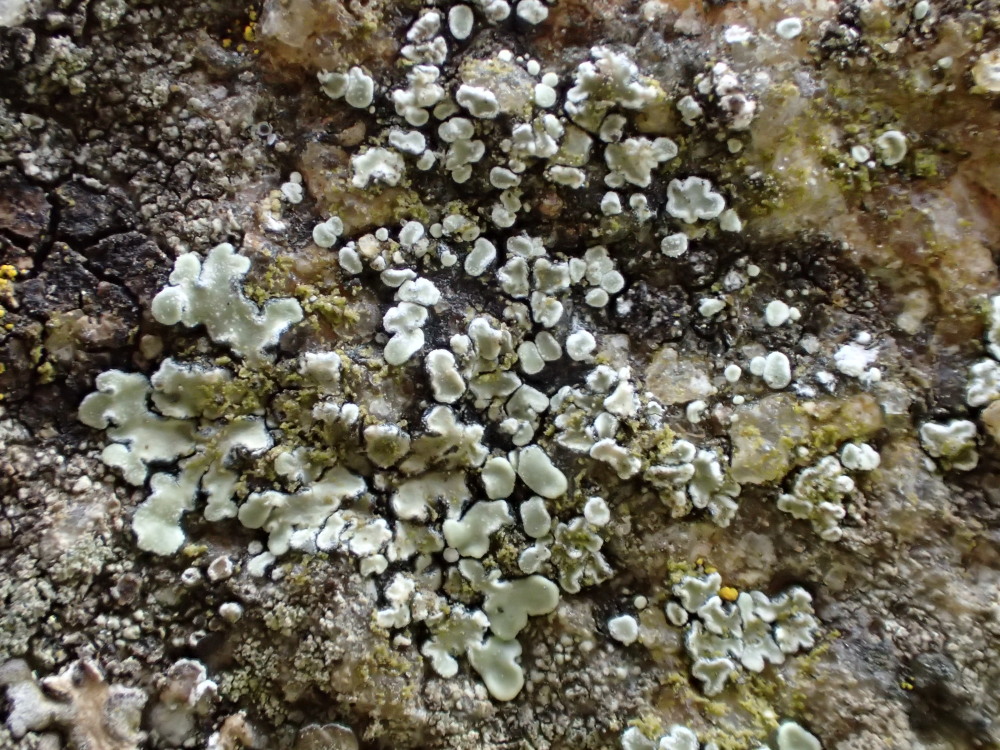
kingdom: Fungi
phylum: Ascomycota
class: Lecanoromycetes
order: Lecanorales
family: Lecanoraceae
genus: Protoparmeliopsis
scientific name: Protoparmeliopsis muralis
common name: randfliget kantskivelav
